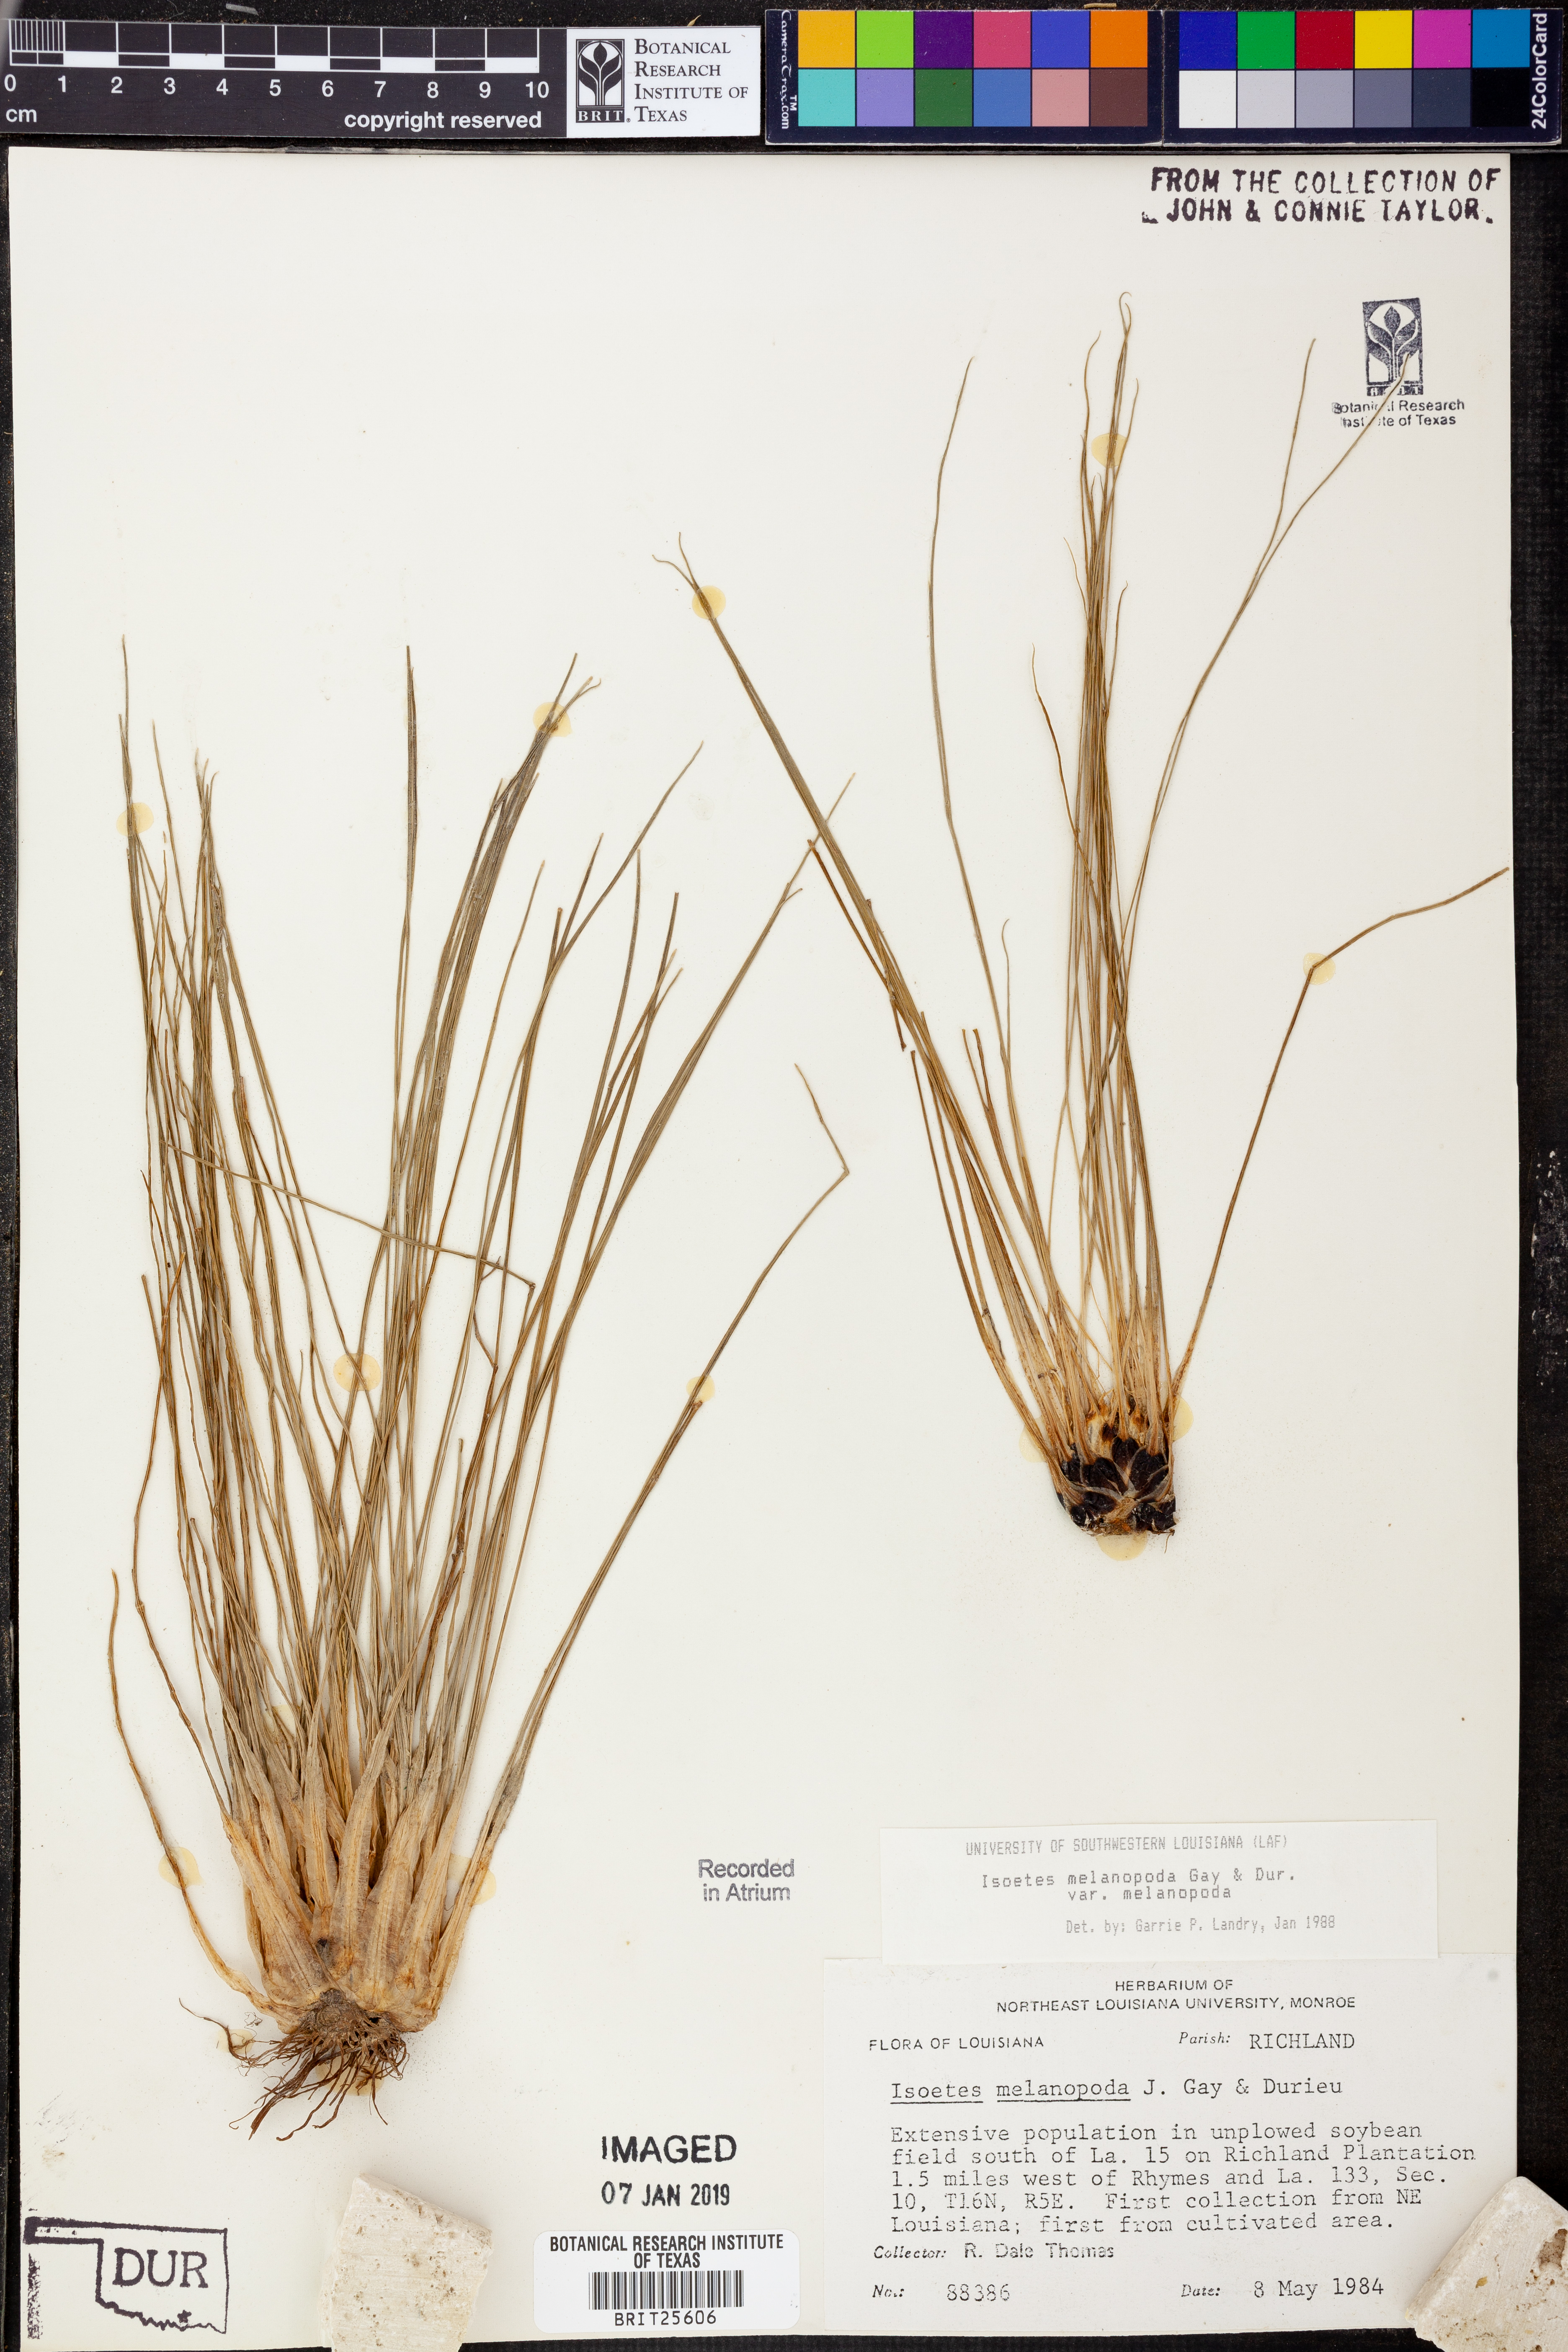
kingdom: Plantae
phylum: Tracheophyta
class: Lycopodiopsida
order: Isoetales
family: Isoetaceae
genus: Isoetes
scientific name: Isoetes melanopoda
